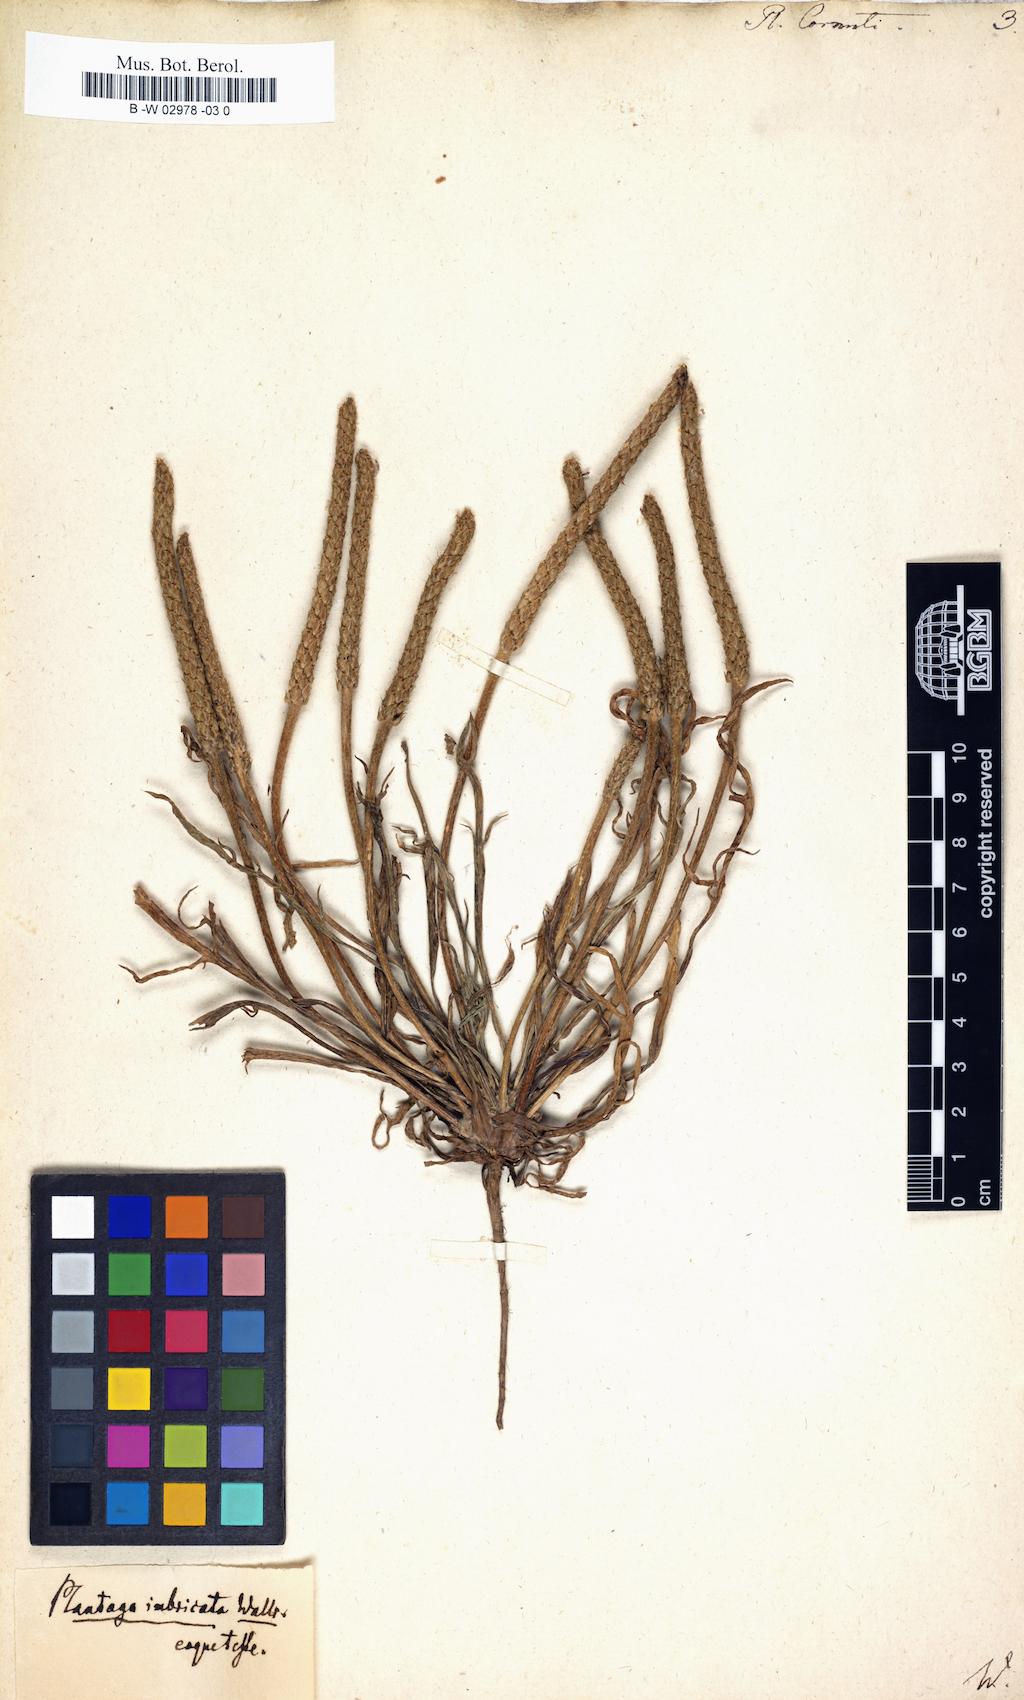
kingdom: Plantae
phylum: Tracheophyta
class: Magnoliopsida
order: Lamiales
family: Plantaginaceae
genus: Plantago
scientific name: Plantago cornuti
